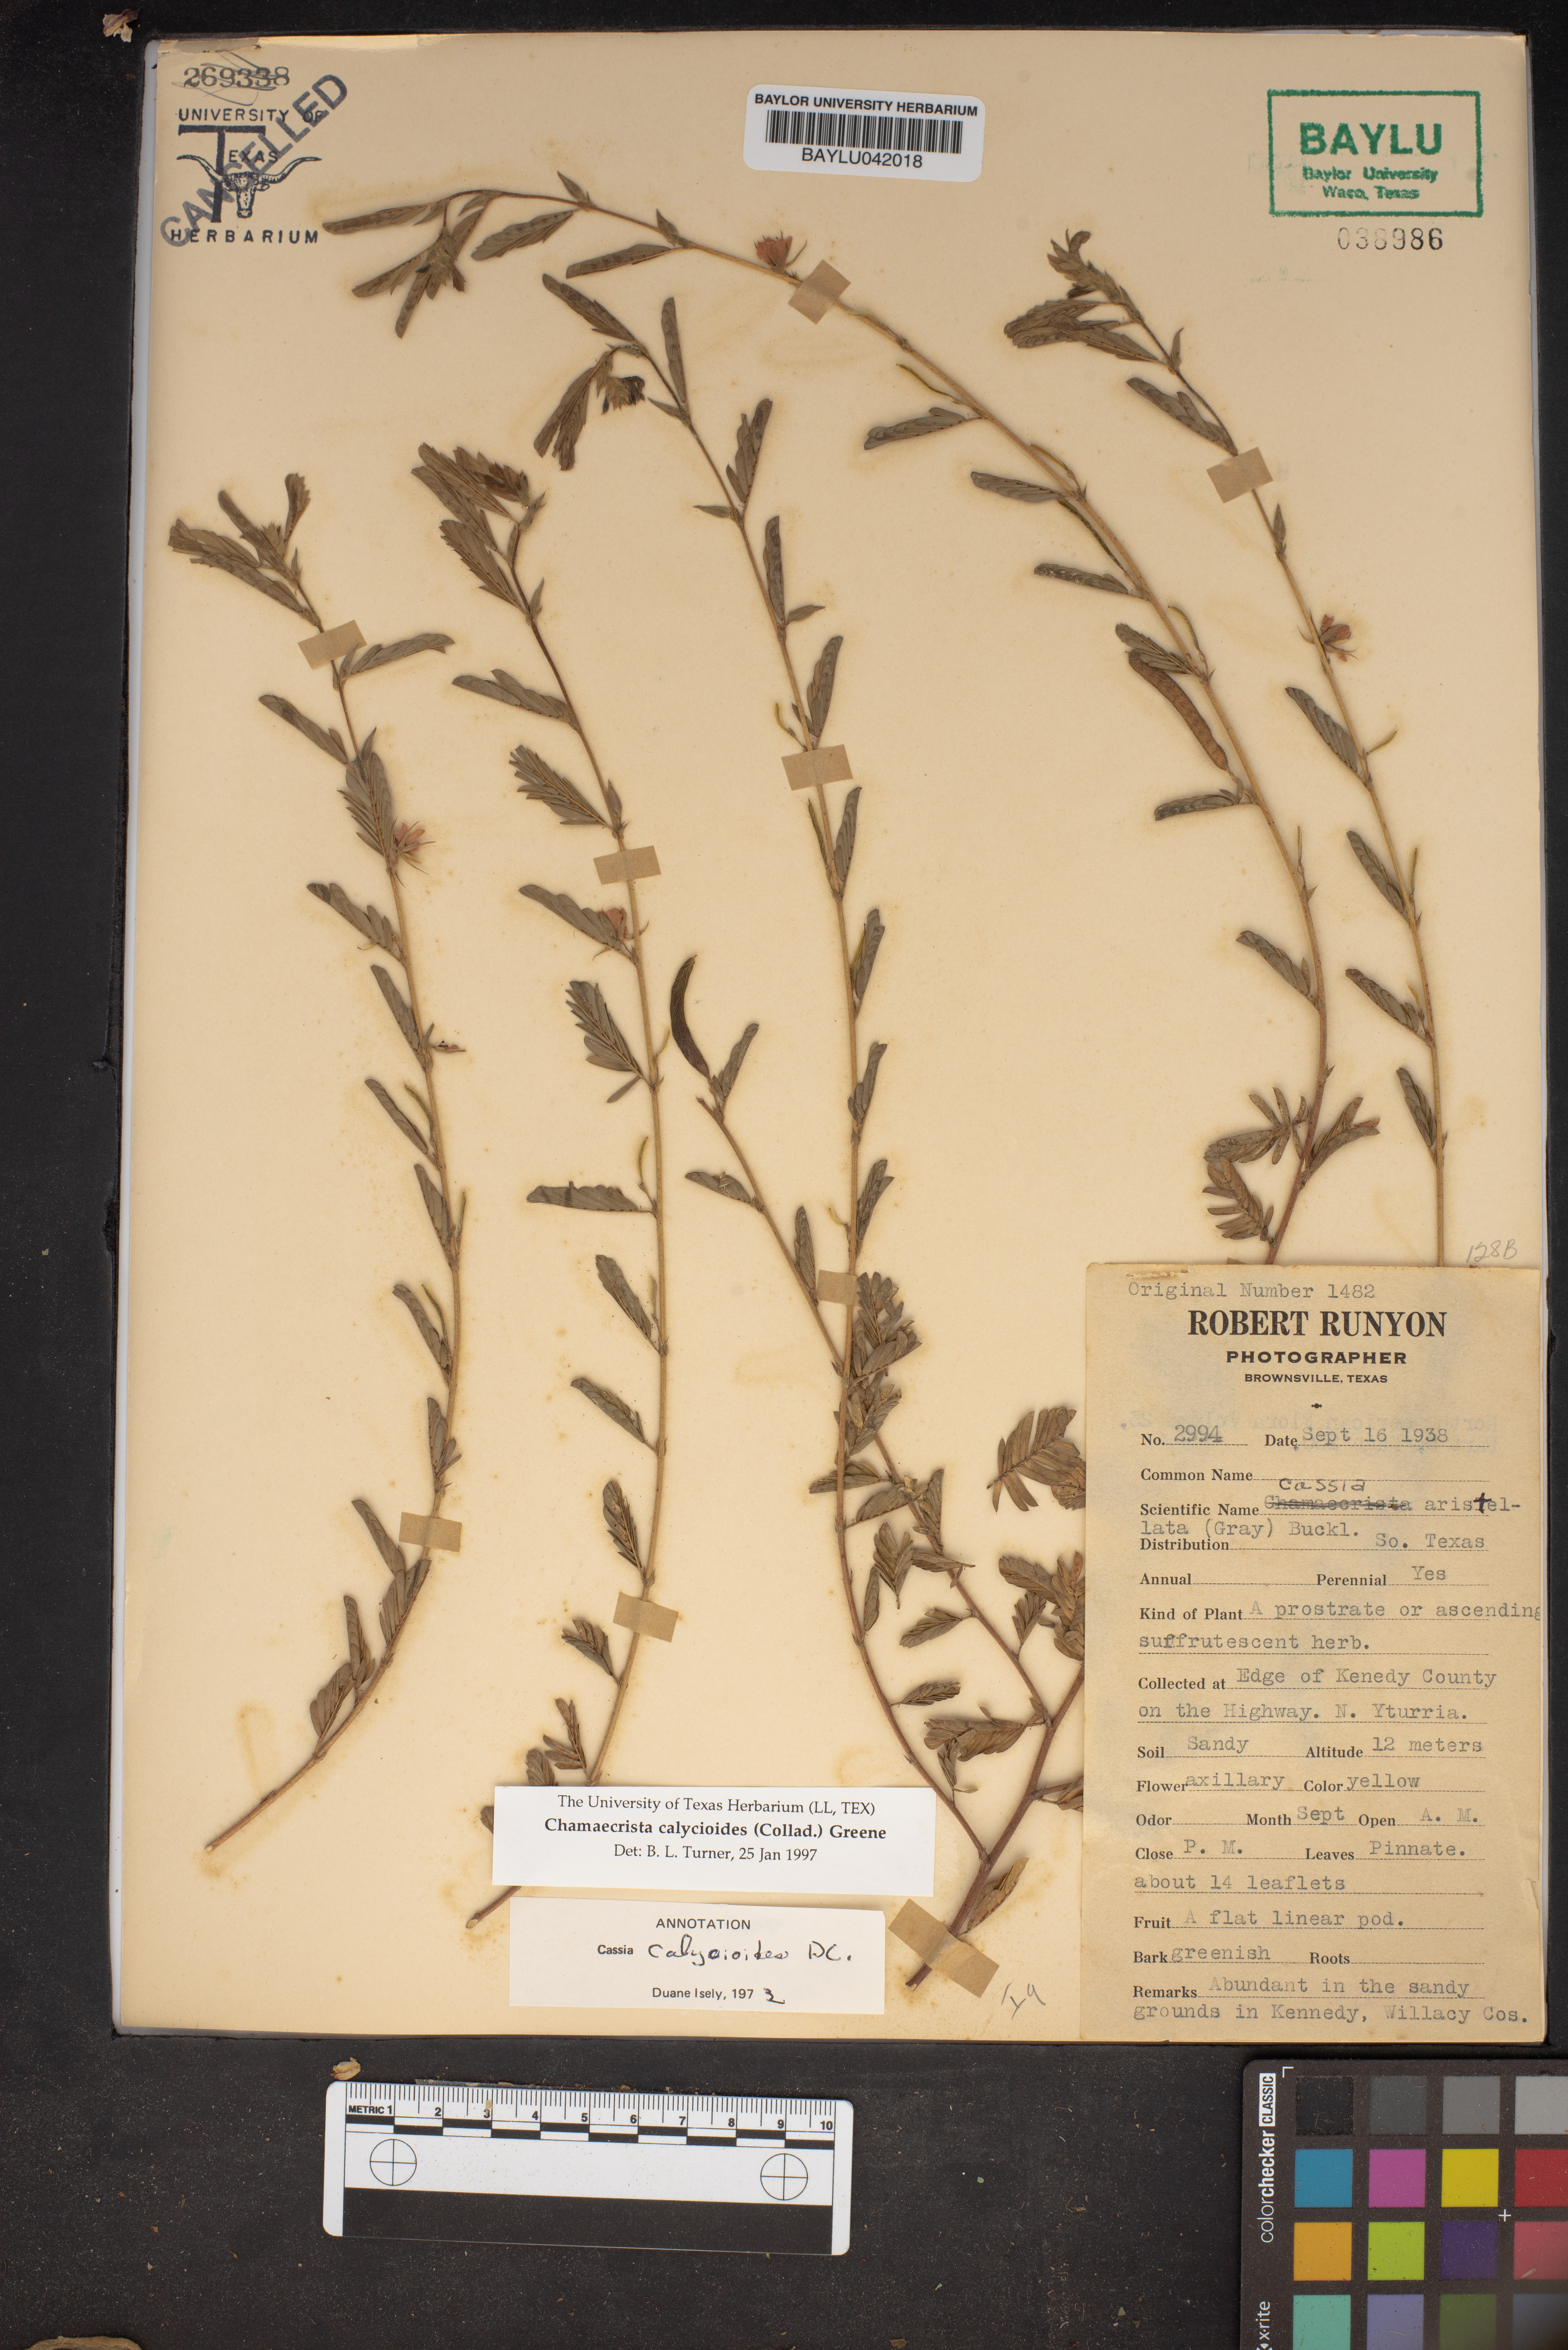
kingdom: Plantae
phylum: Tracheophyta
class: Magnoliopsida
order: Fabales
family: Fabaceae
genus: Chamaecrista
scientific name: Chamaecrista calycioides
